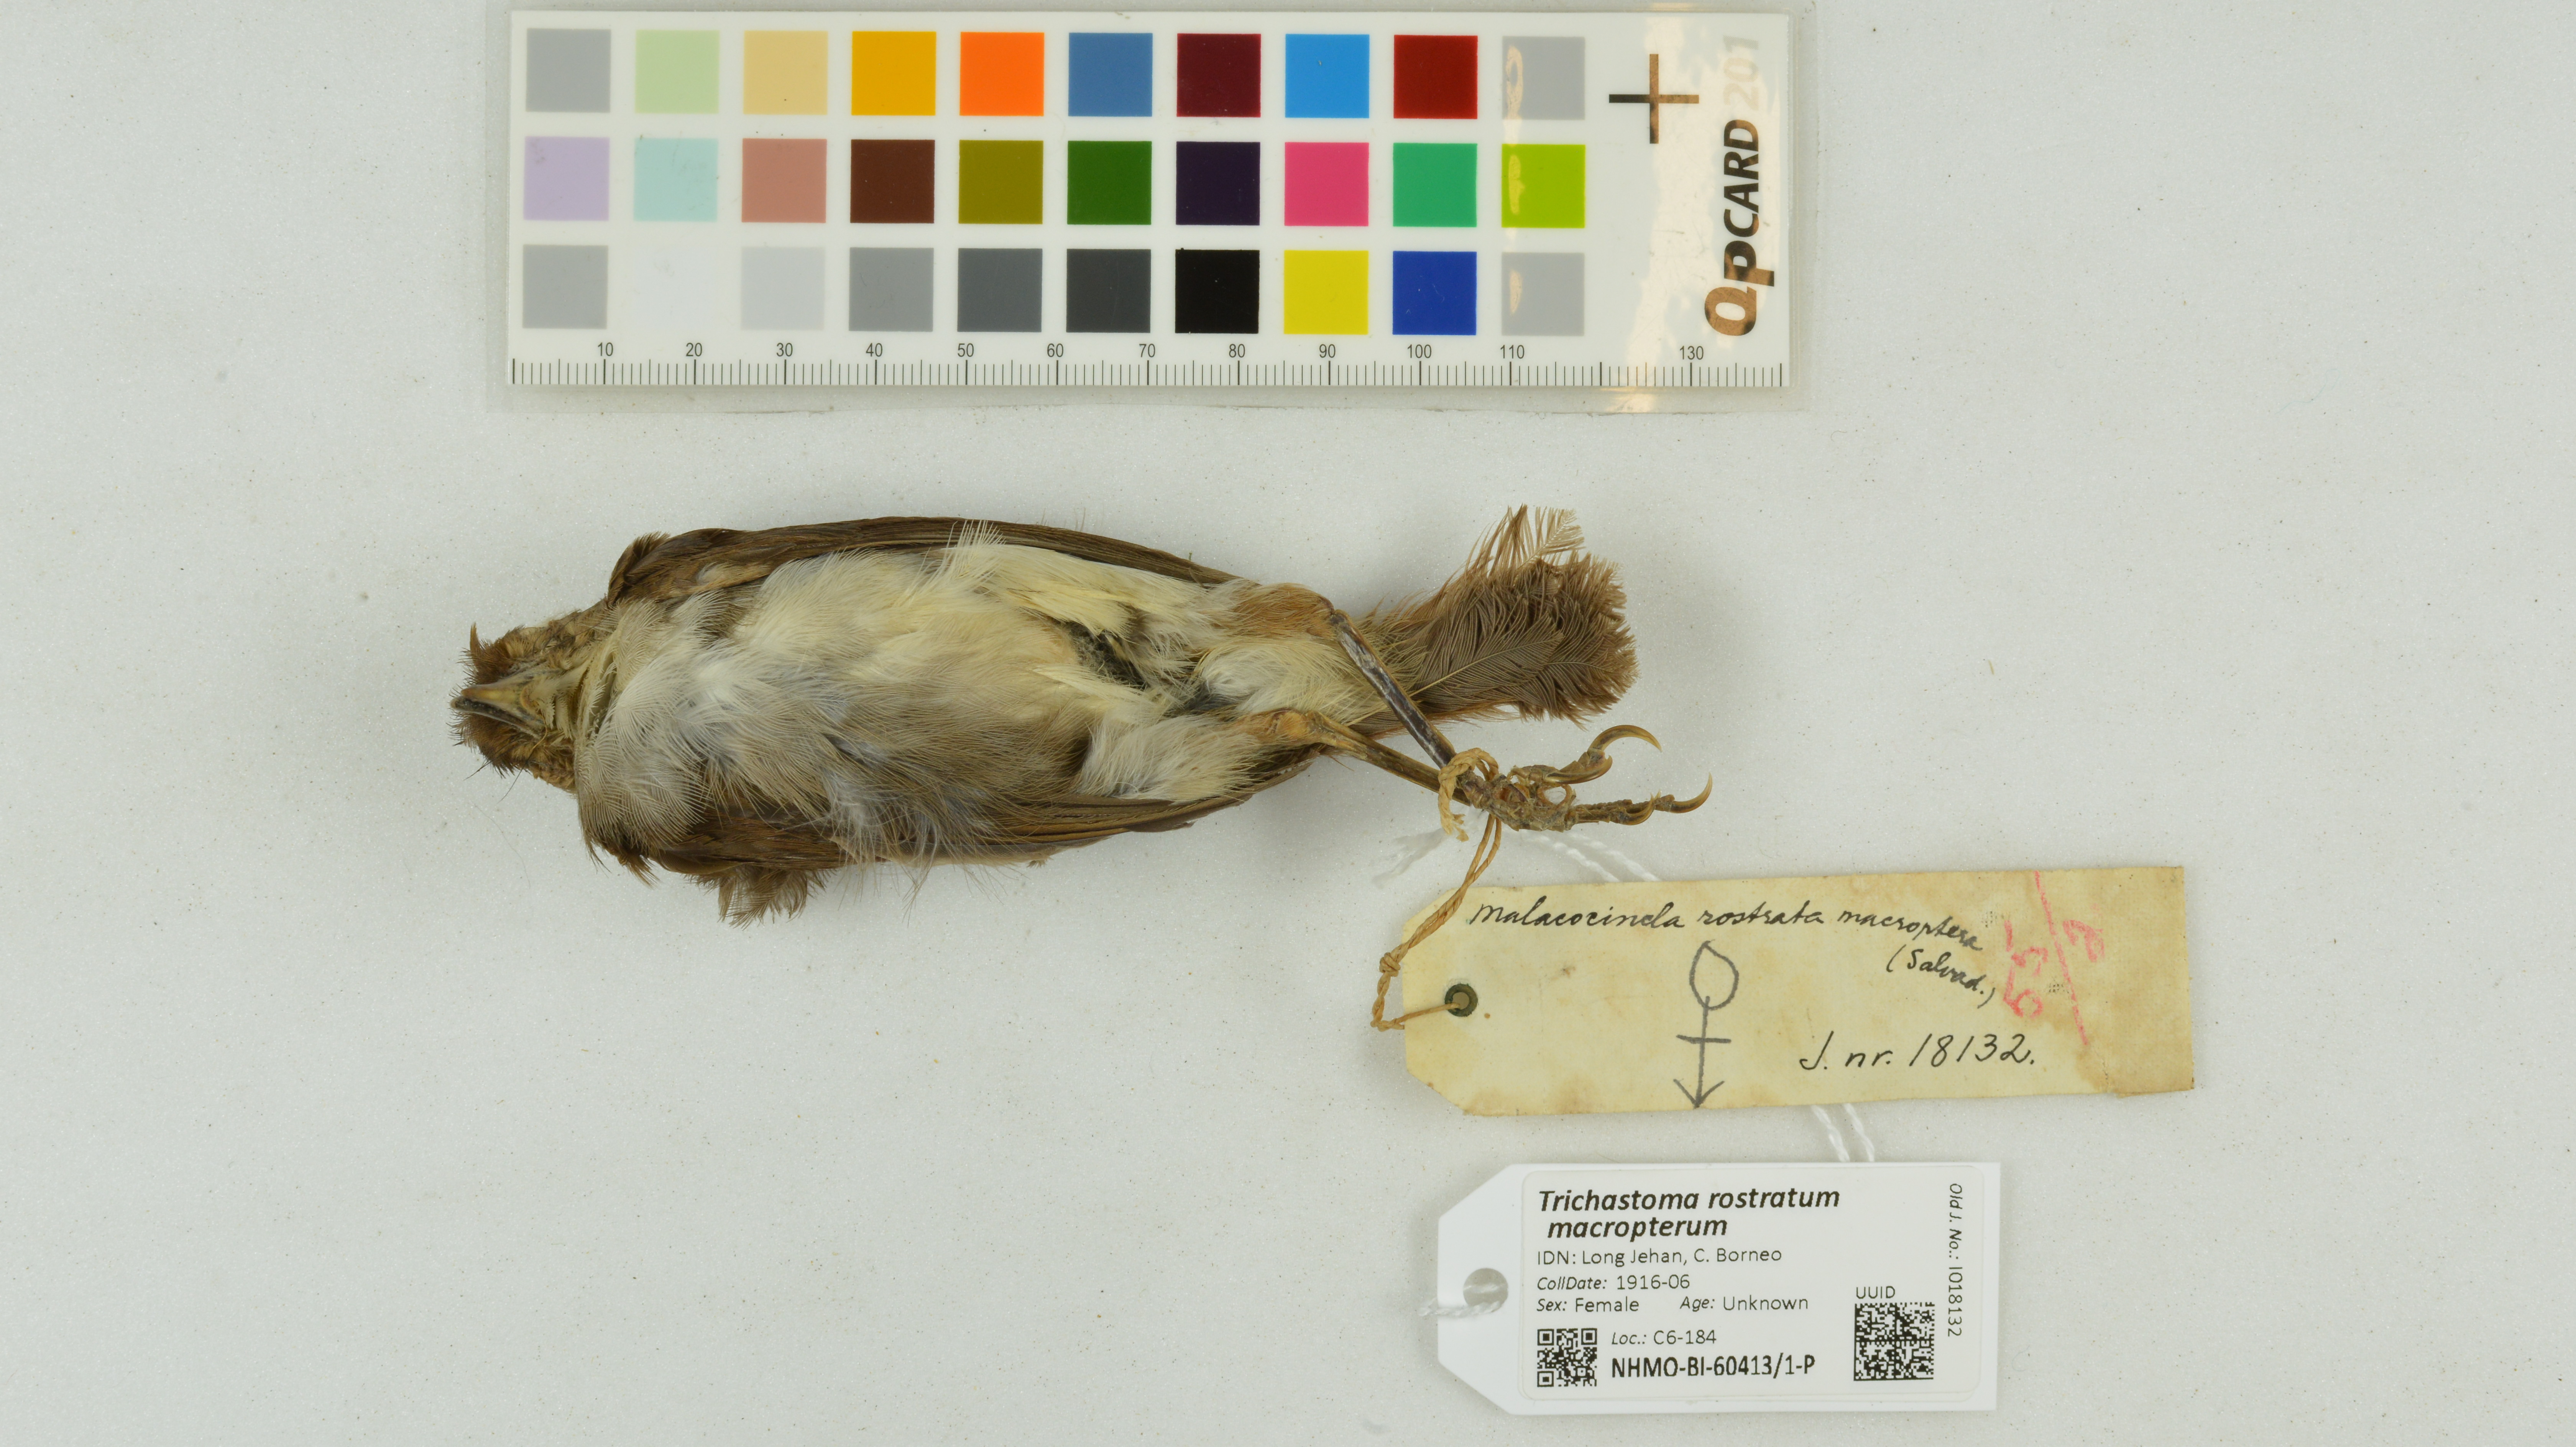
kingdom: Animalia
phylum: Chordata
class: Aves
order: Passeriformes
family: Pellorneidae
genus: Trichastoma
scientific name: Trichastoma rostratum
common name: White-chested babbler
